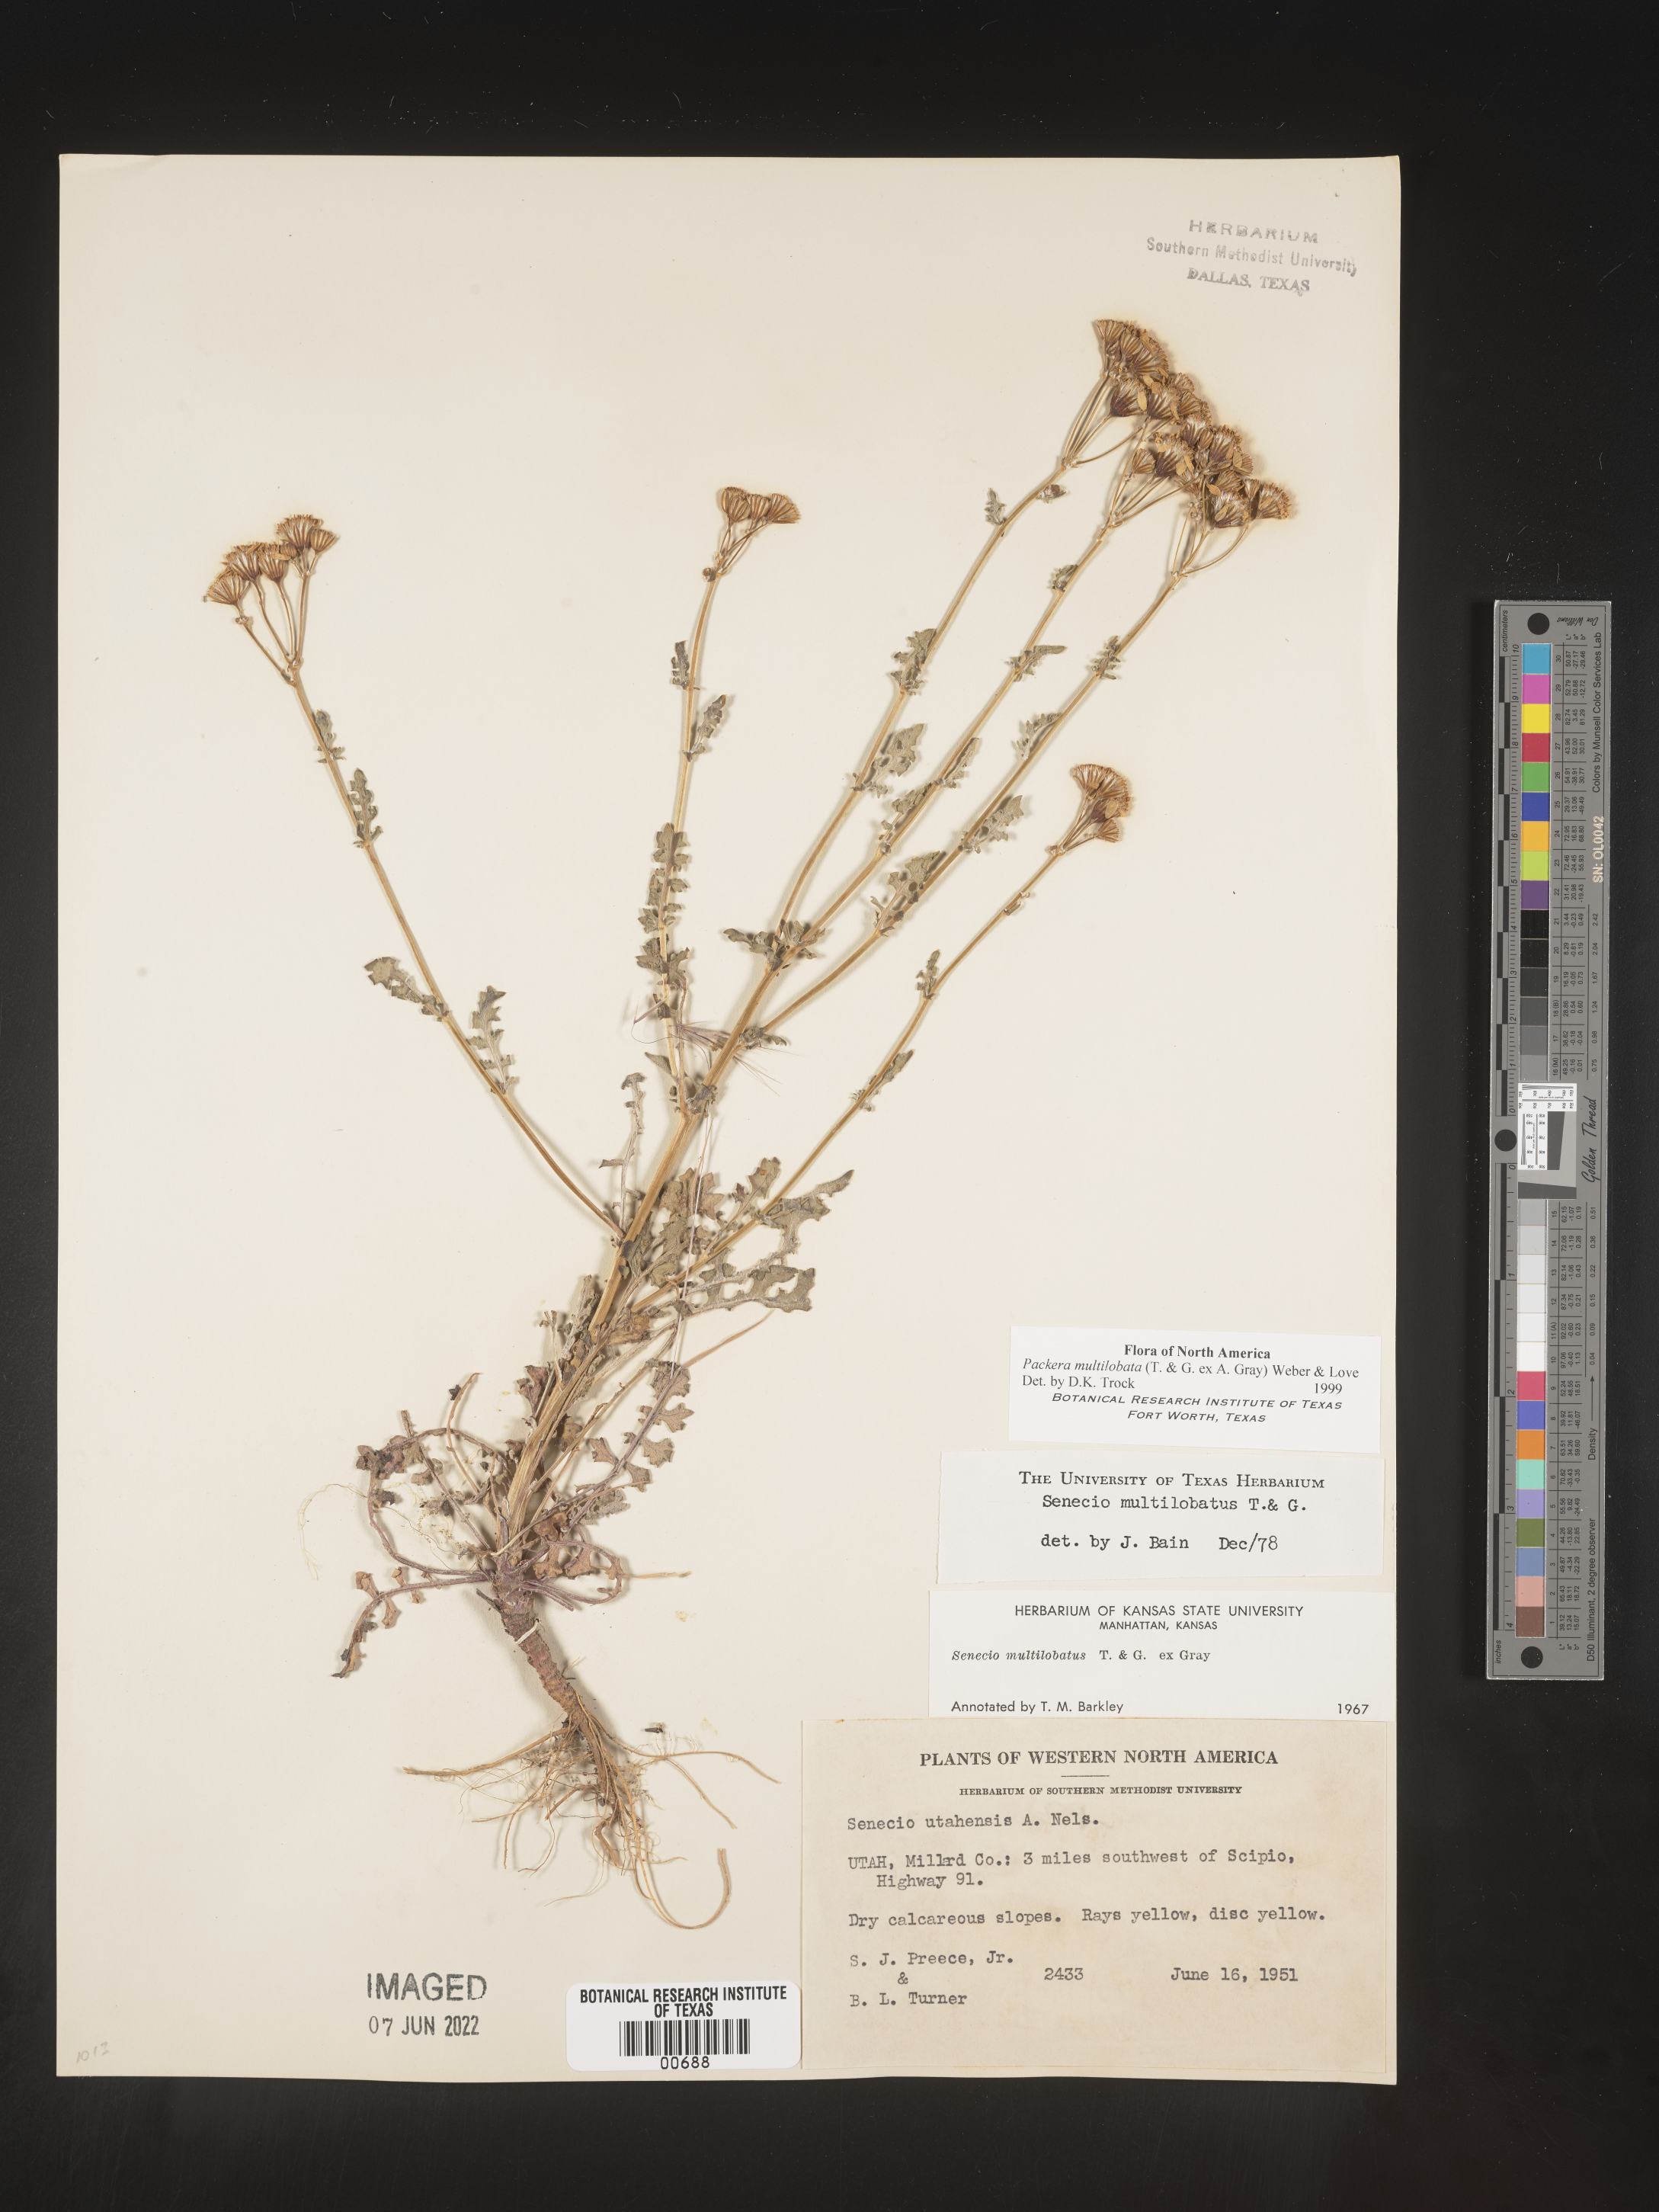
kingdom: Plantae
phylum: Tracheophyta
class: Magnoliopsida
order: Asterales
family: Asteraceae
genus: Packera
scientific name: Packera multilobata
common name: Lobe-leaf groundsel
